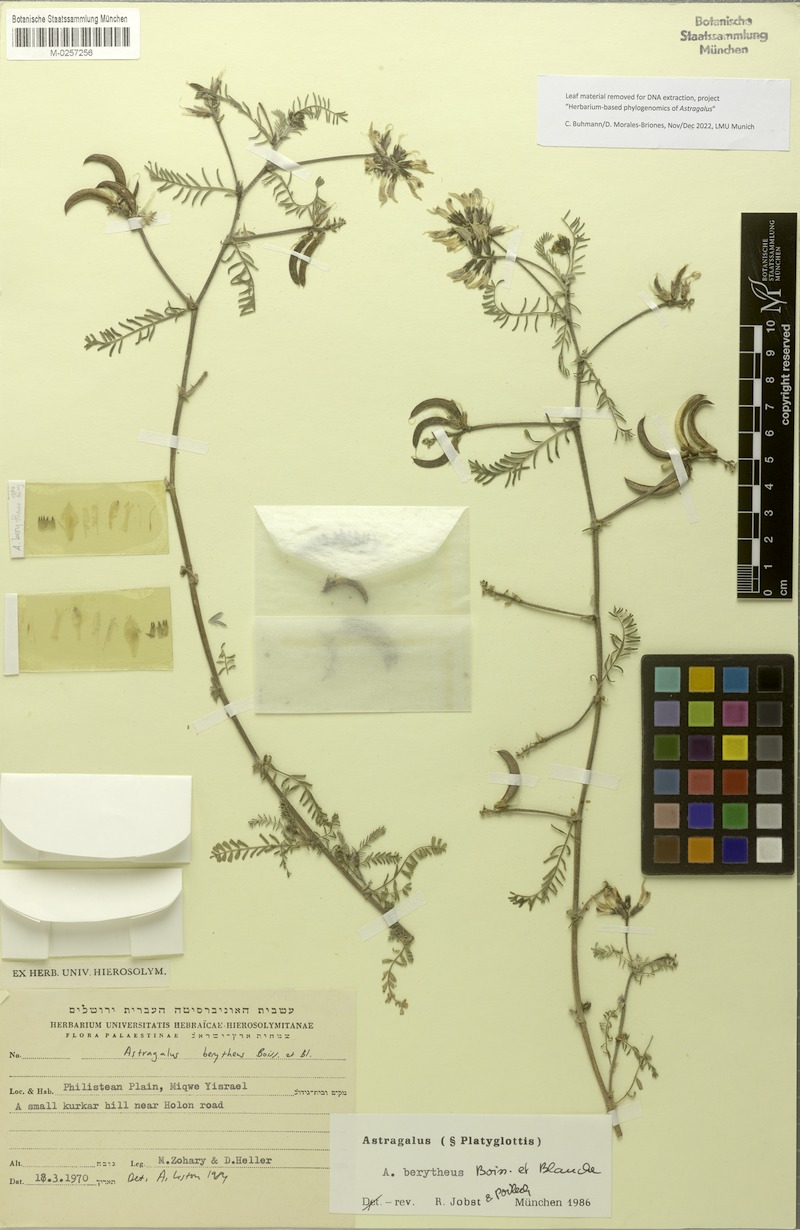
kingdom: Plantae
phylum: Tracheophyta
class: Magnoliopsida
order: Fabales
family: Fabaceae
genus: Astragalus
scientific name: Astragalus berytheus
